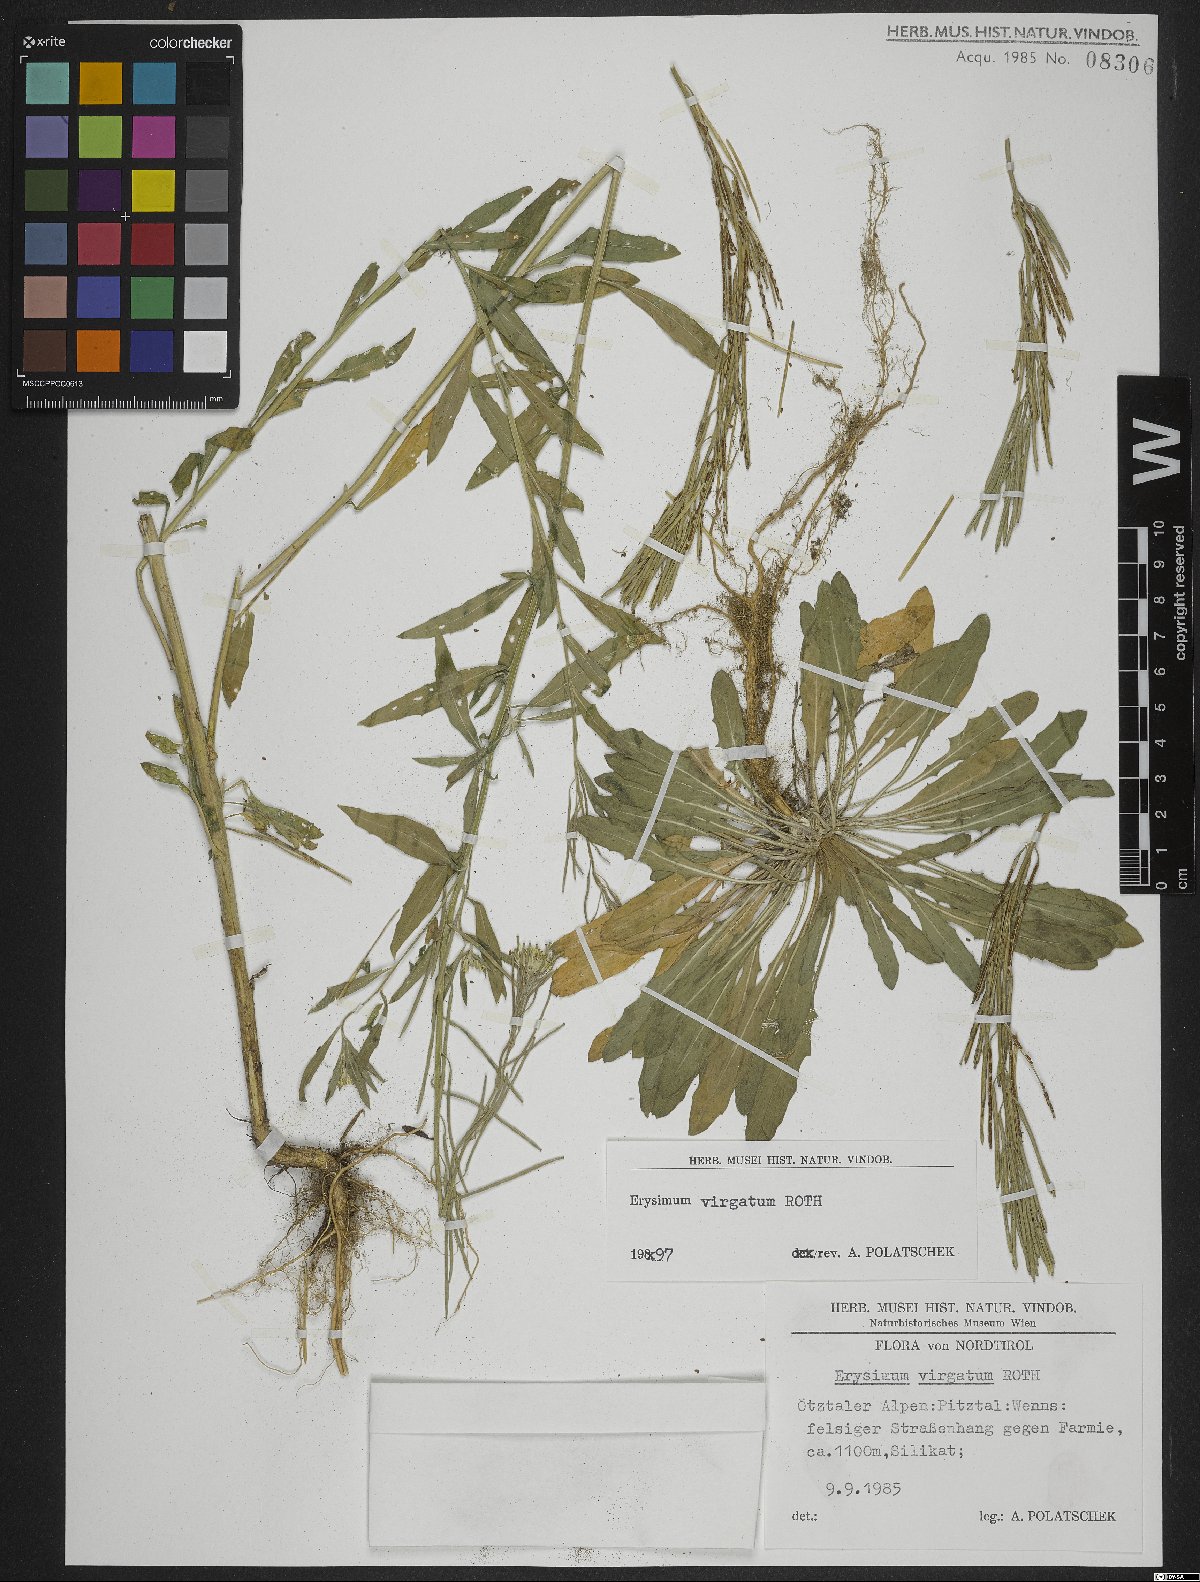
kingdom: Plantae
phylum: Tracheophyta
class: Magnoliopsida
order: Brassicales
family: Brassicaceae
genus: Erysimum
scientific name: Erysimum virgatum
